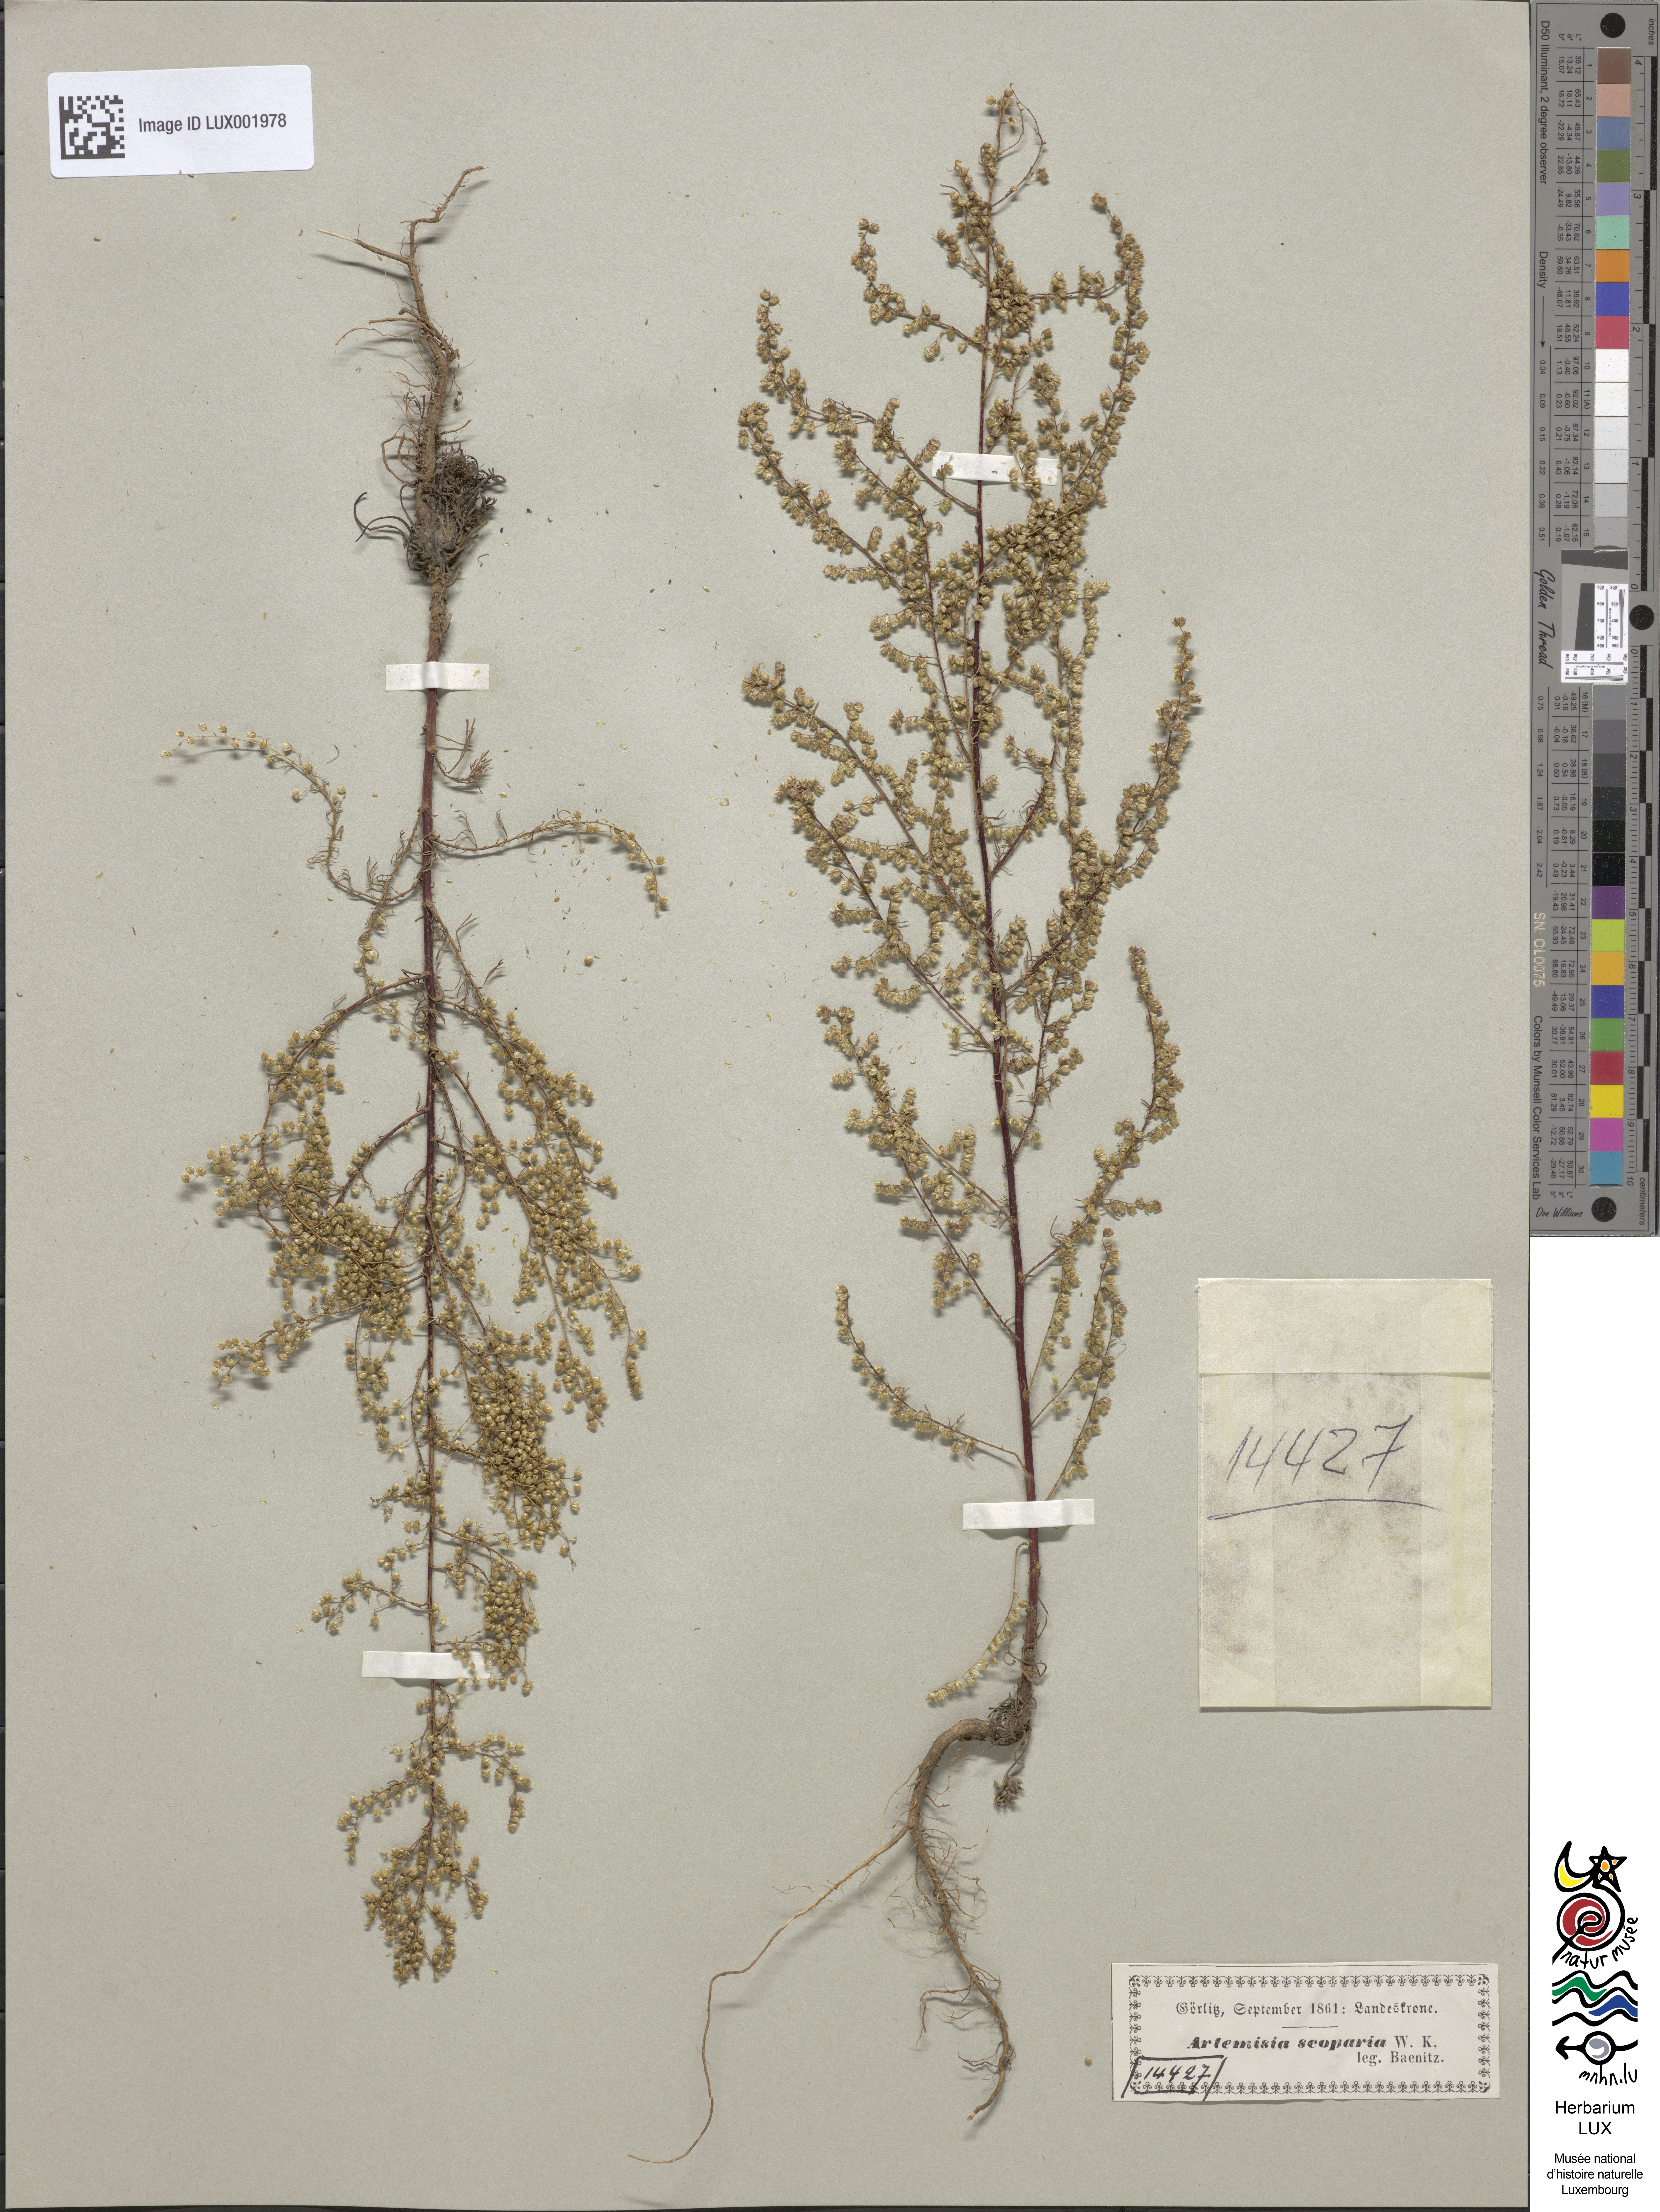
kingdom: Plantae
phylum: Tracheophyta
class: Magnoliopsida
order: Asterales
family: Asteraceae
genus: Artemisia
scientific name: Artemisia scoparia
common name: Redstem wormwood
